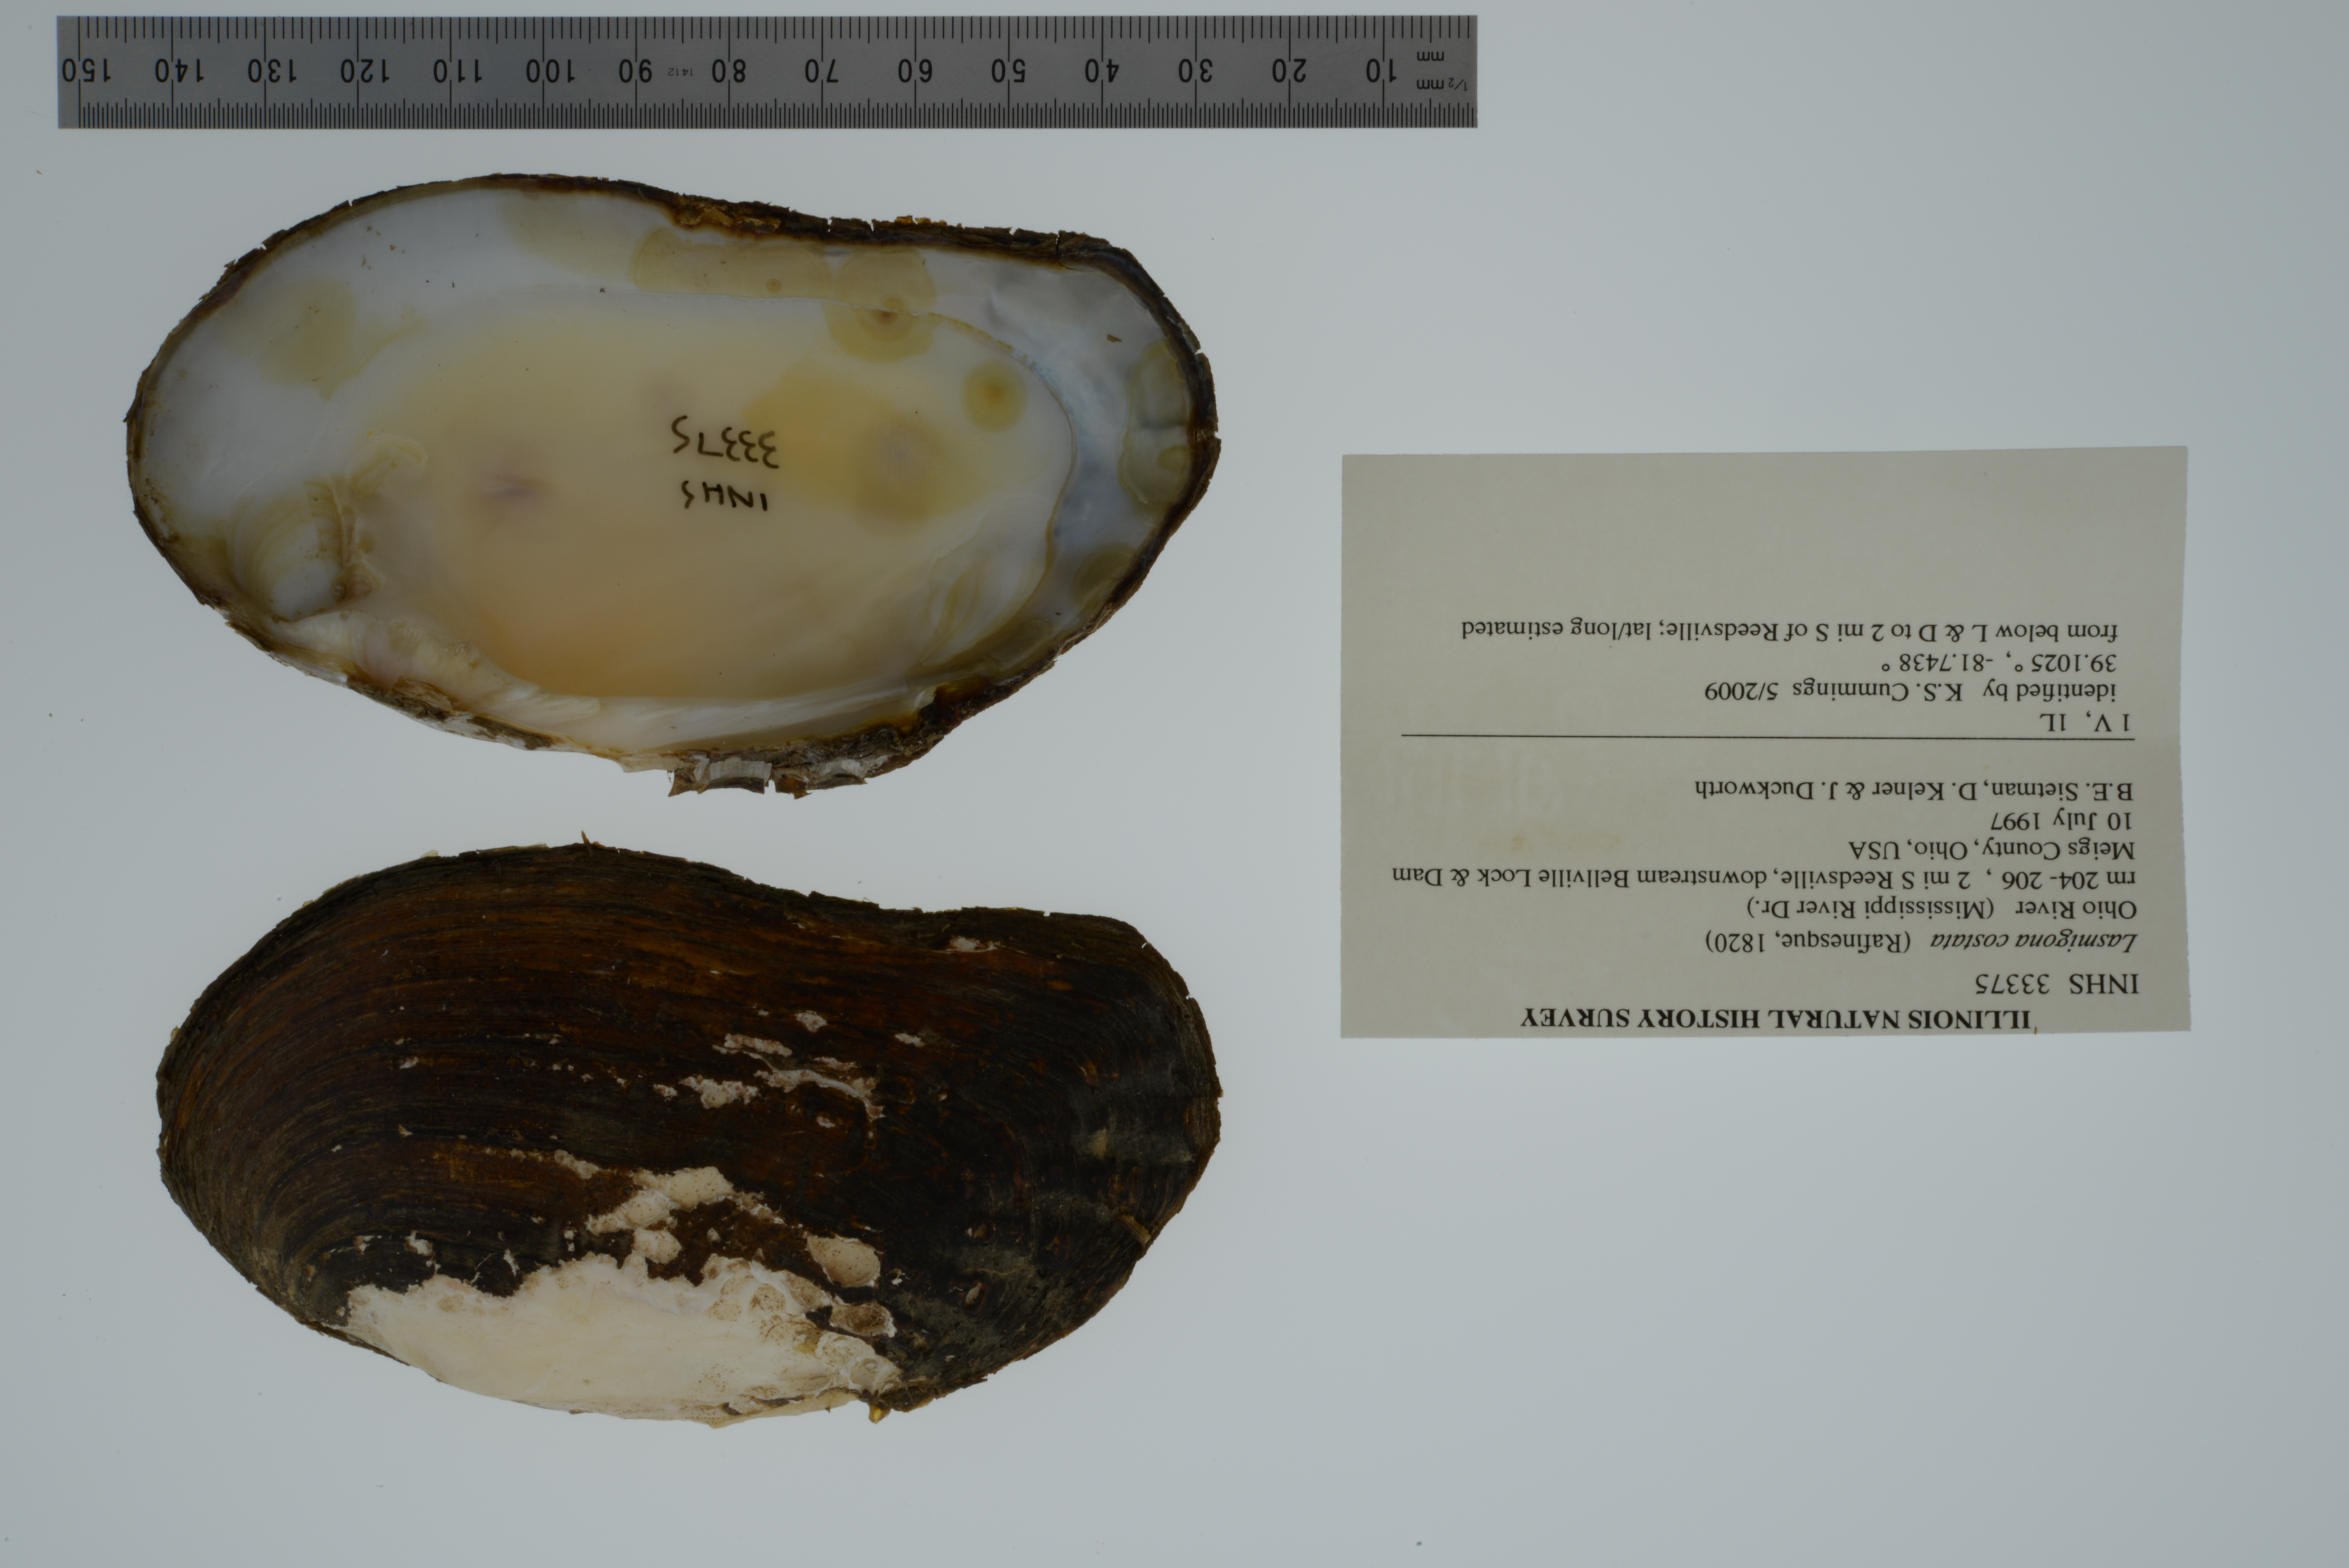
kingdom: Animalia
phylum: Mollusca
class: Bivalvia
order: Unionida
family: Unionidae
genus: Lasmigona
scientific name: Lasmigona costata
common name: Flutedshell
